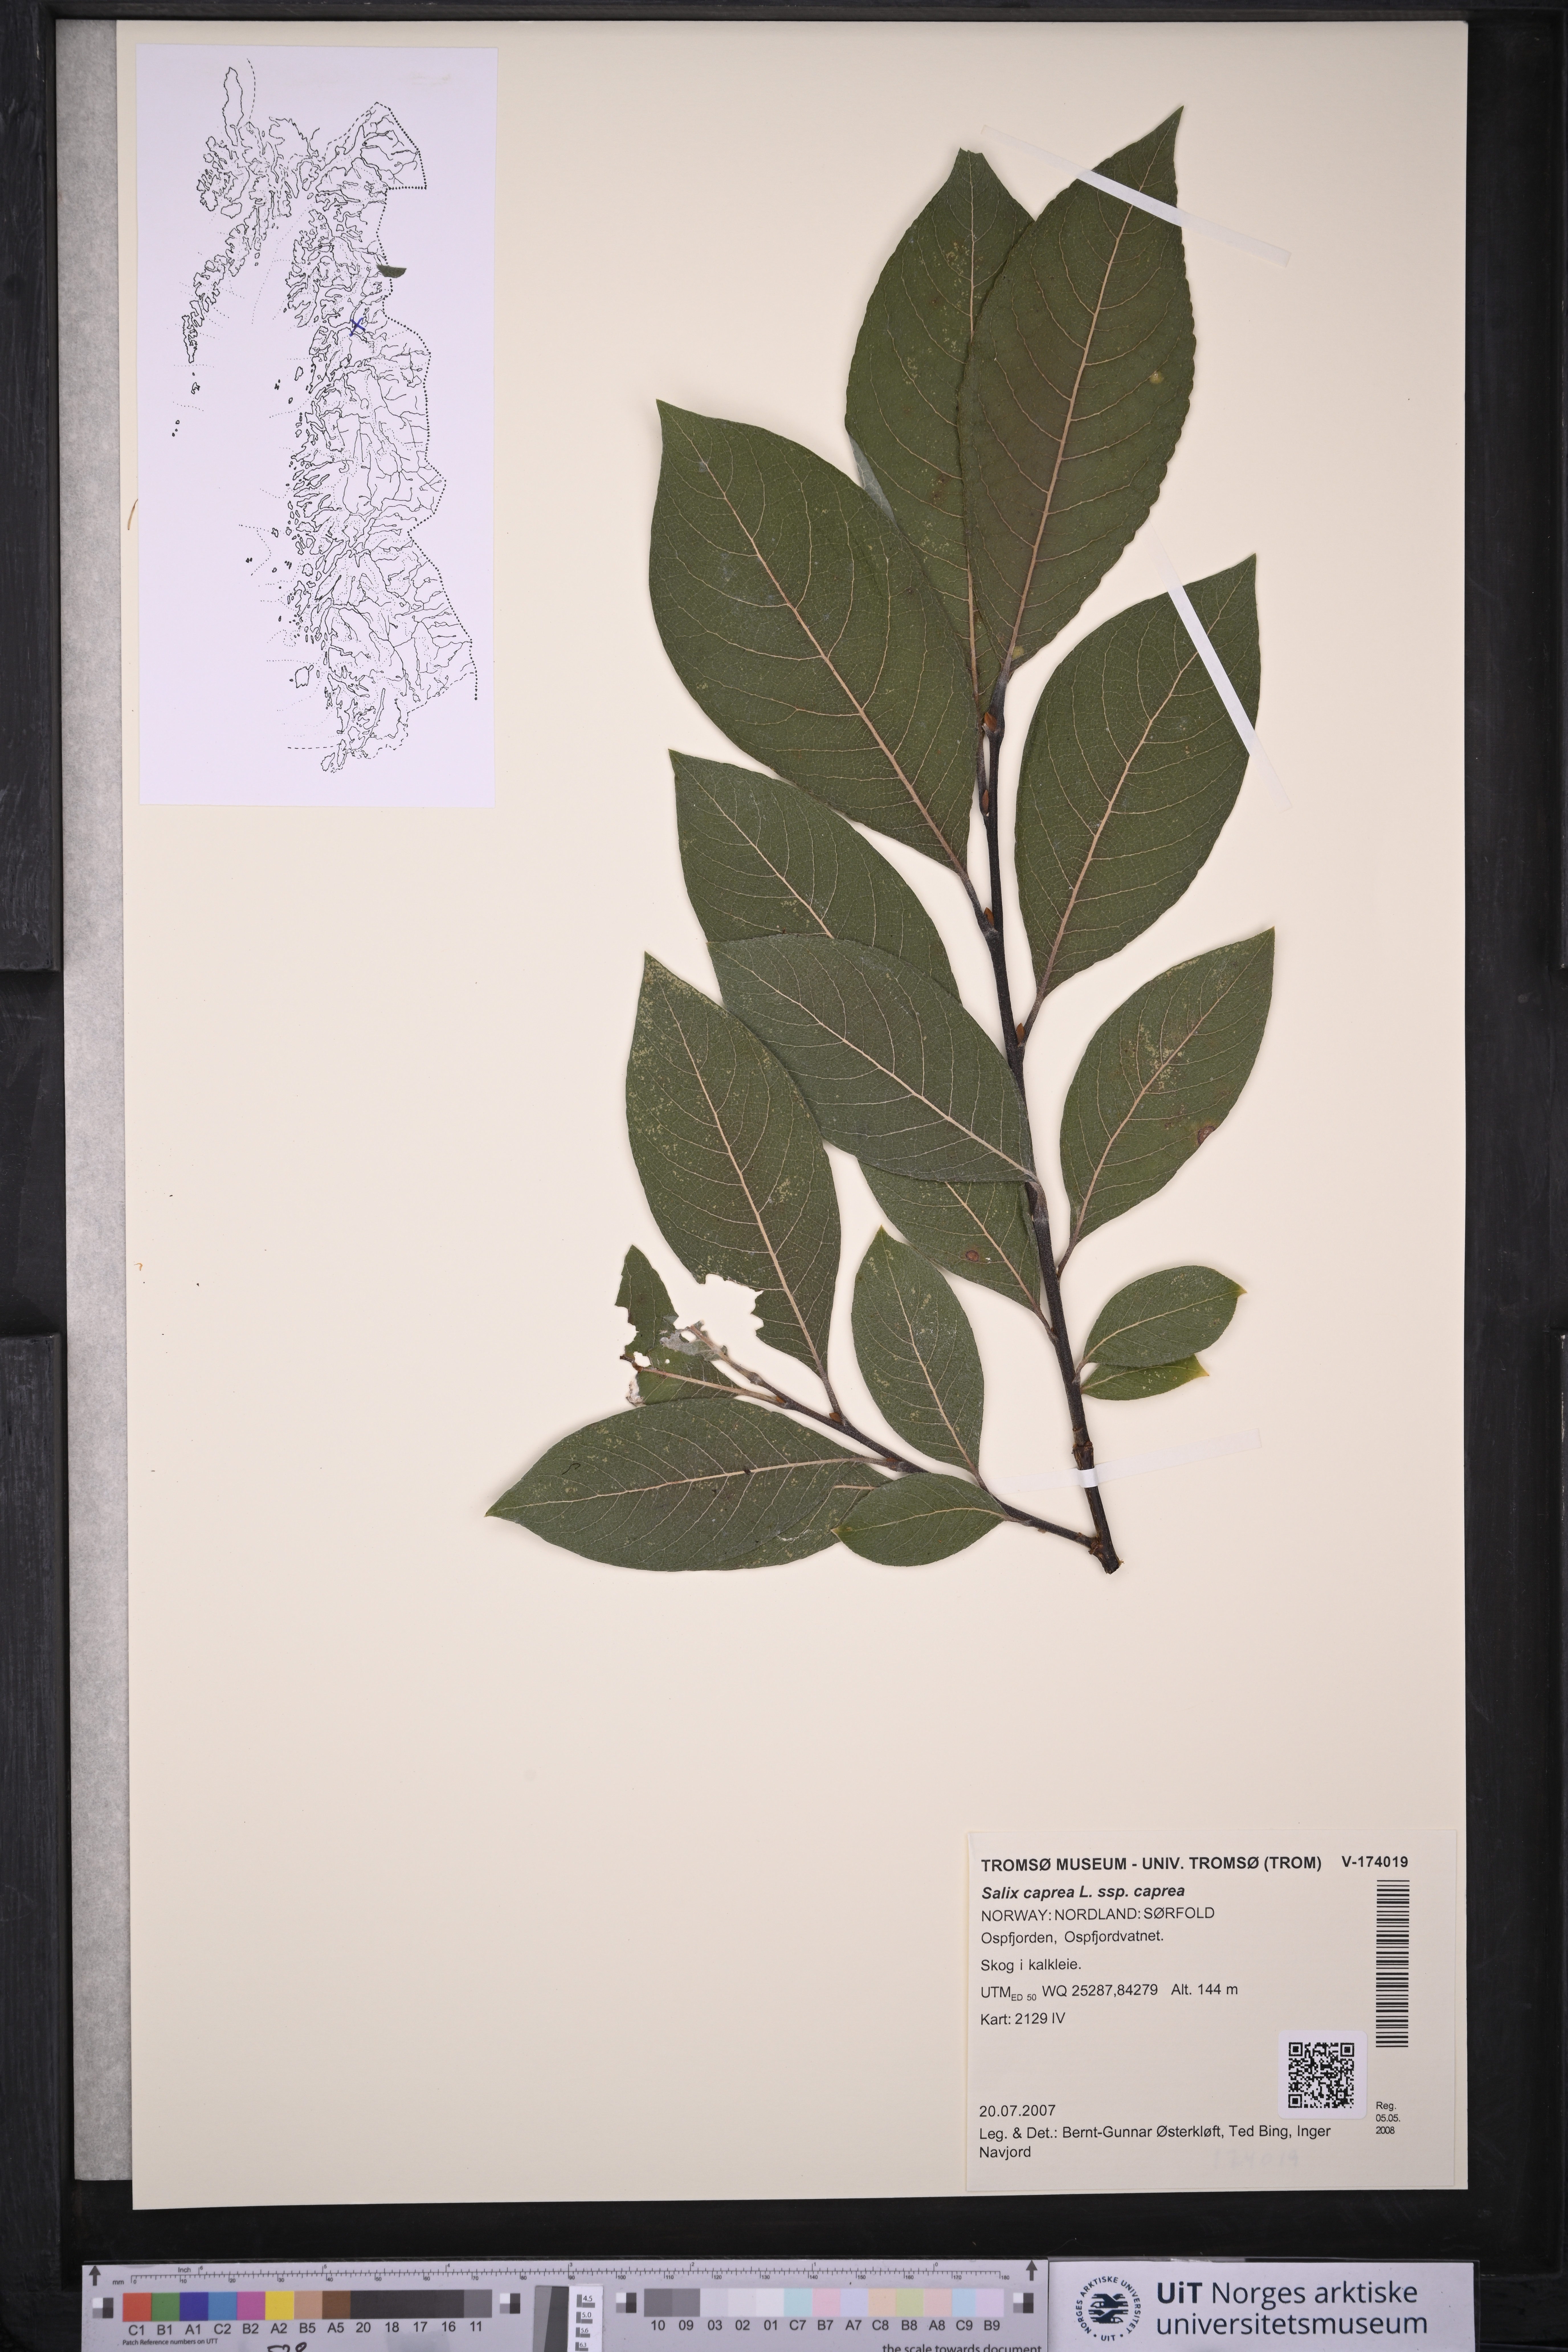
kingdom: Plantae
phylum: Tracheophyta
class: Magnoliopsida
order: Malpighiales
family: Salicaceae
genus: Salix
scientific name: Salix caprea
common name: Goat willow
